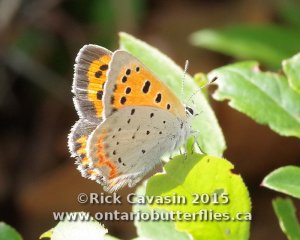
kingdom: Animalia
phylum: Arthropoda
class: Insecta
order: Lepidoptera
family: Lycaenidae
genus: Lycaena
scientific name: Lycaena phlaeas
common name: American Copper
